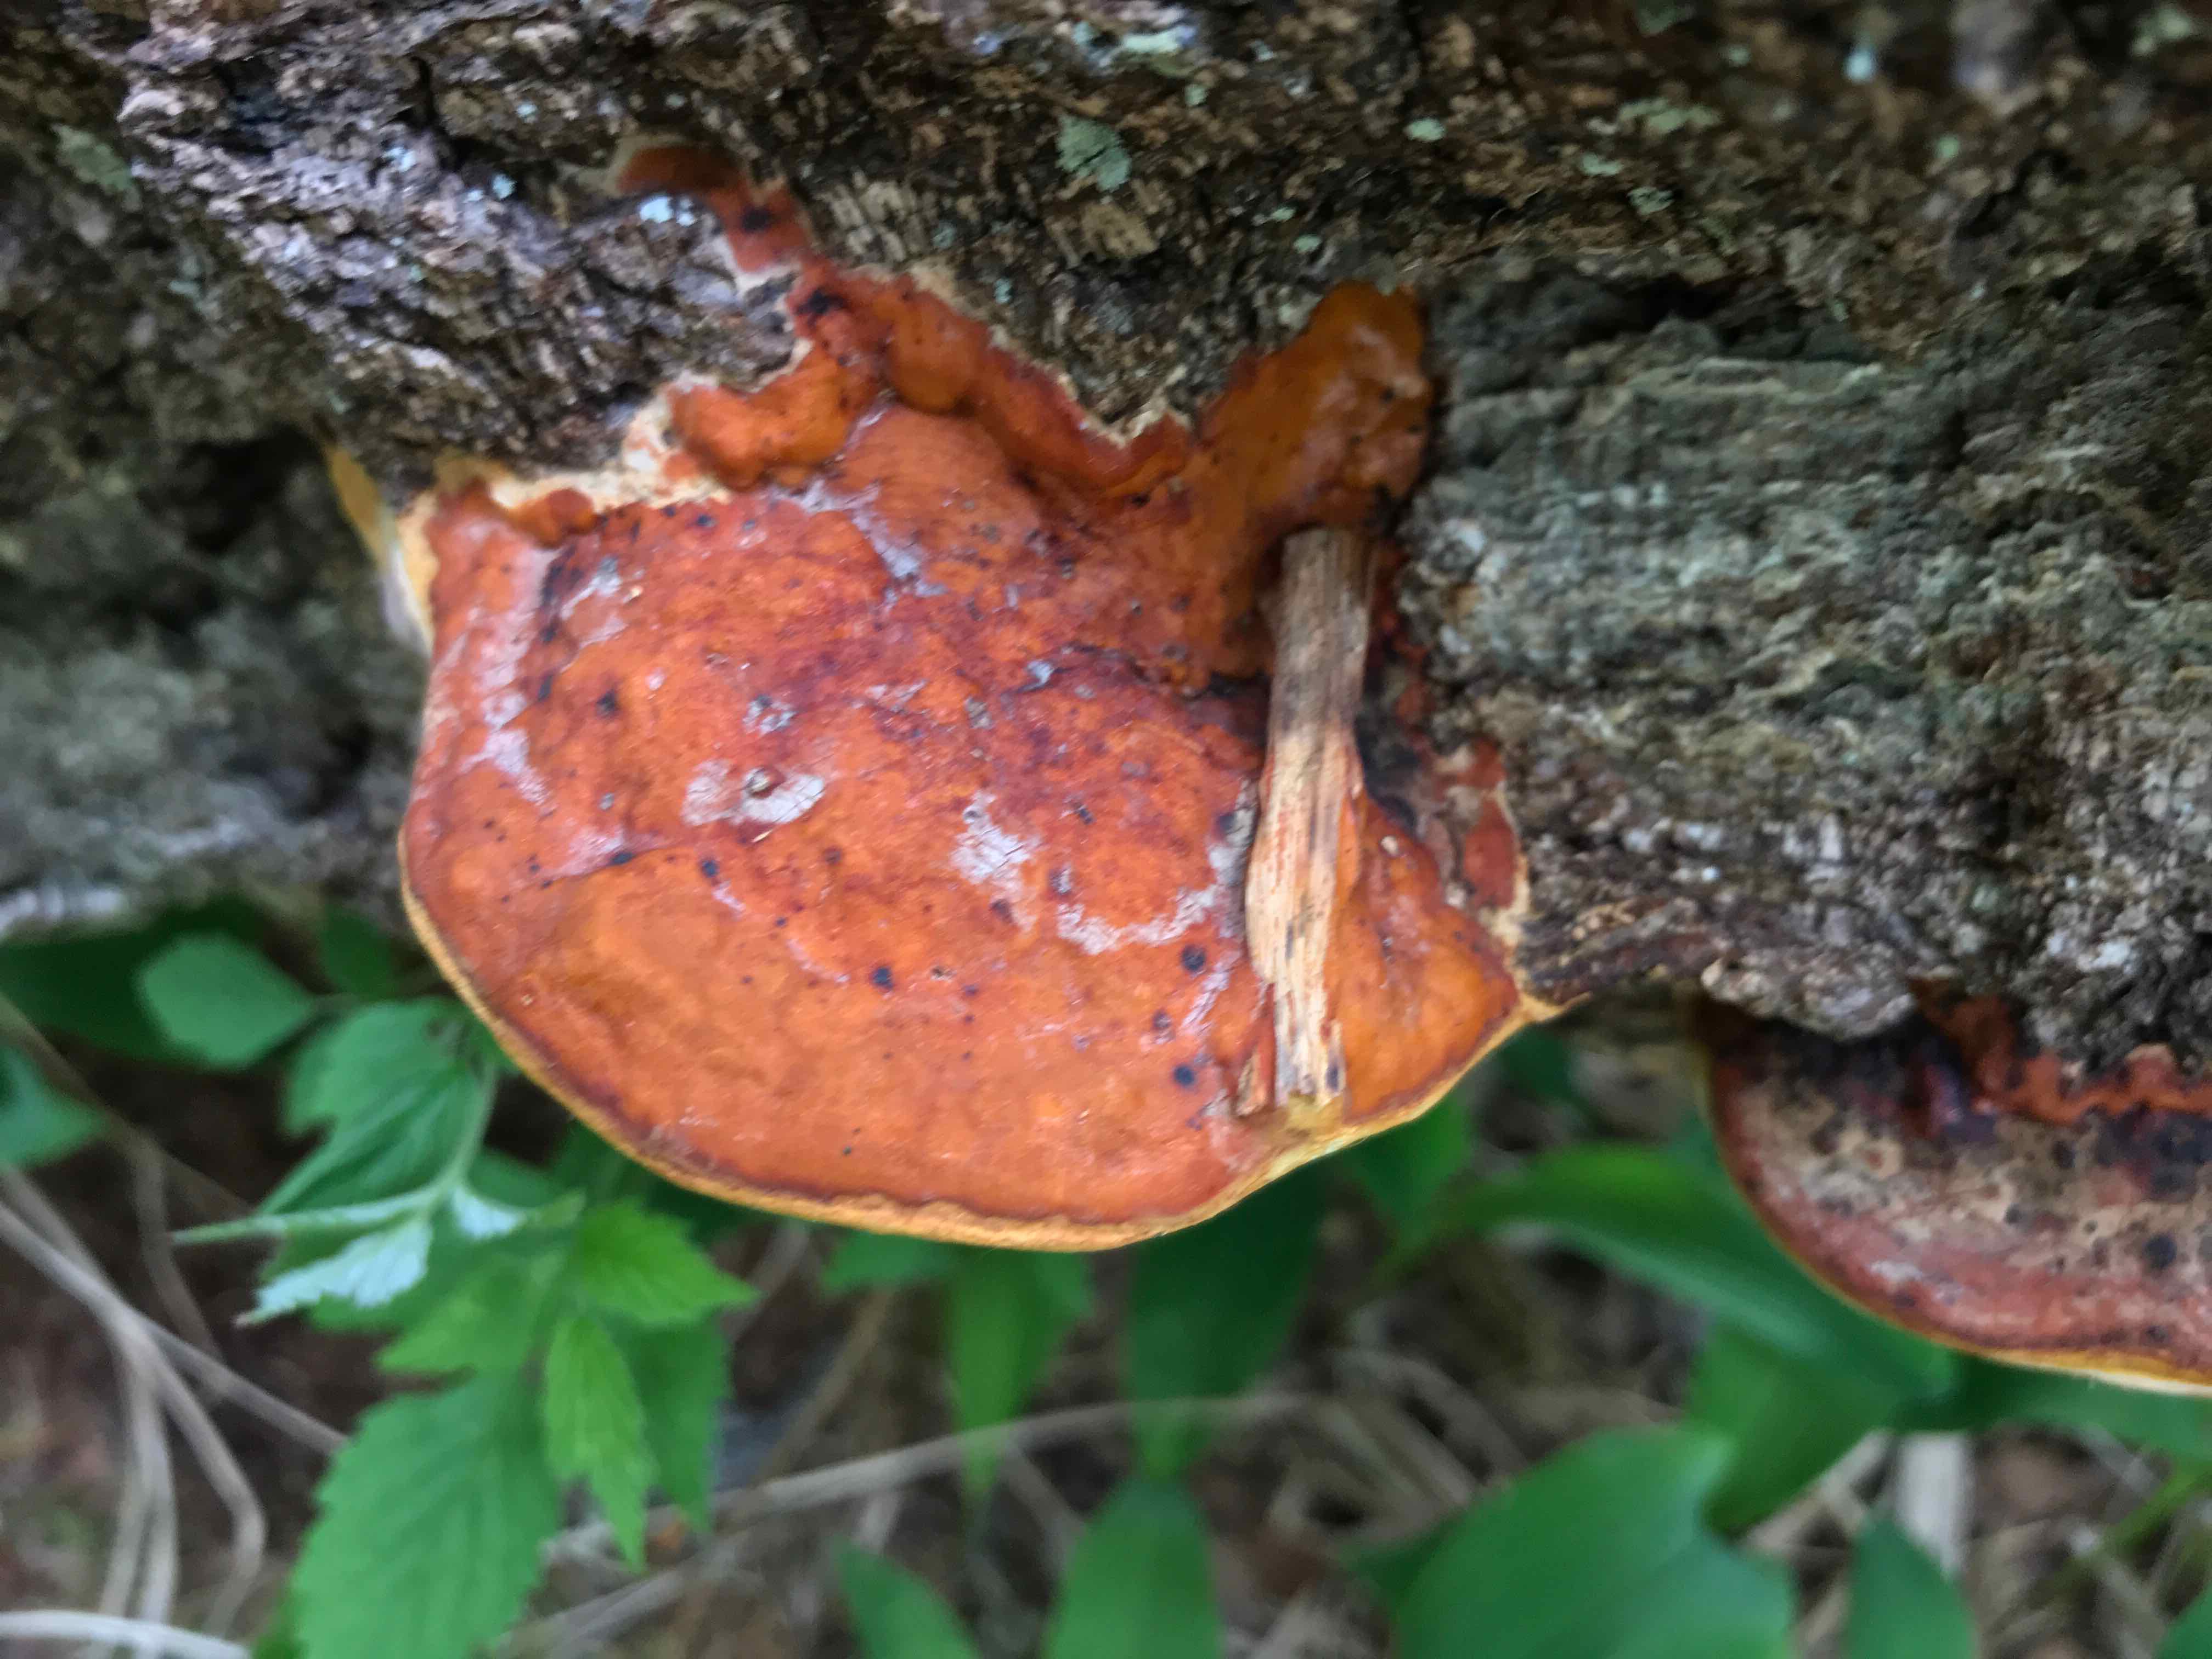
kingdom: Fungi
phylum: Basidiomycota
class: Agaricomycetes
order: Polyporales
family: Fomitopsidaceae
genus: Fomitopsis
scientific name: Fomitopsis pinicola
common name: randbæltet hovporesvamp
